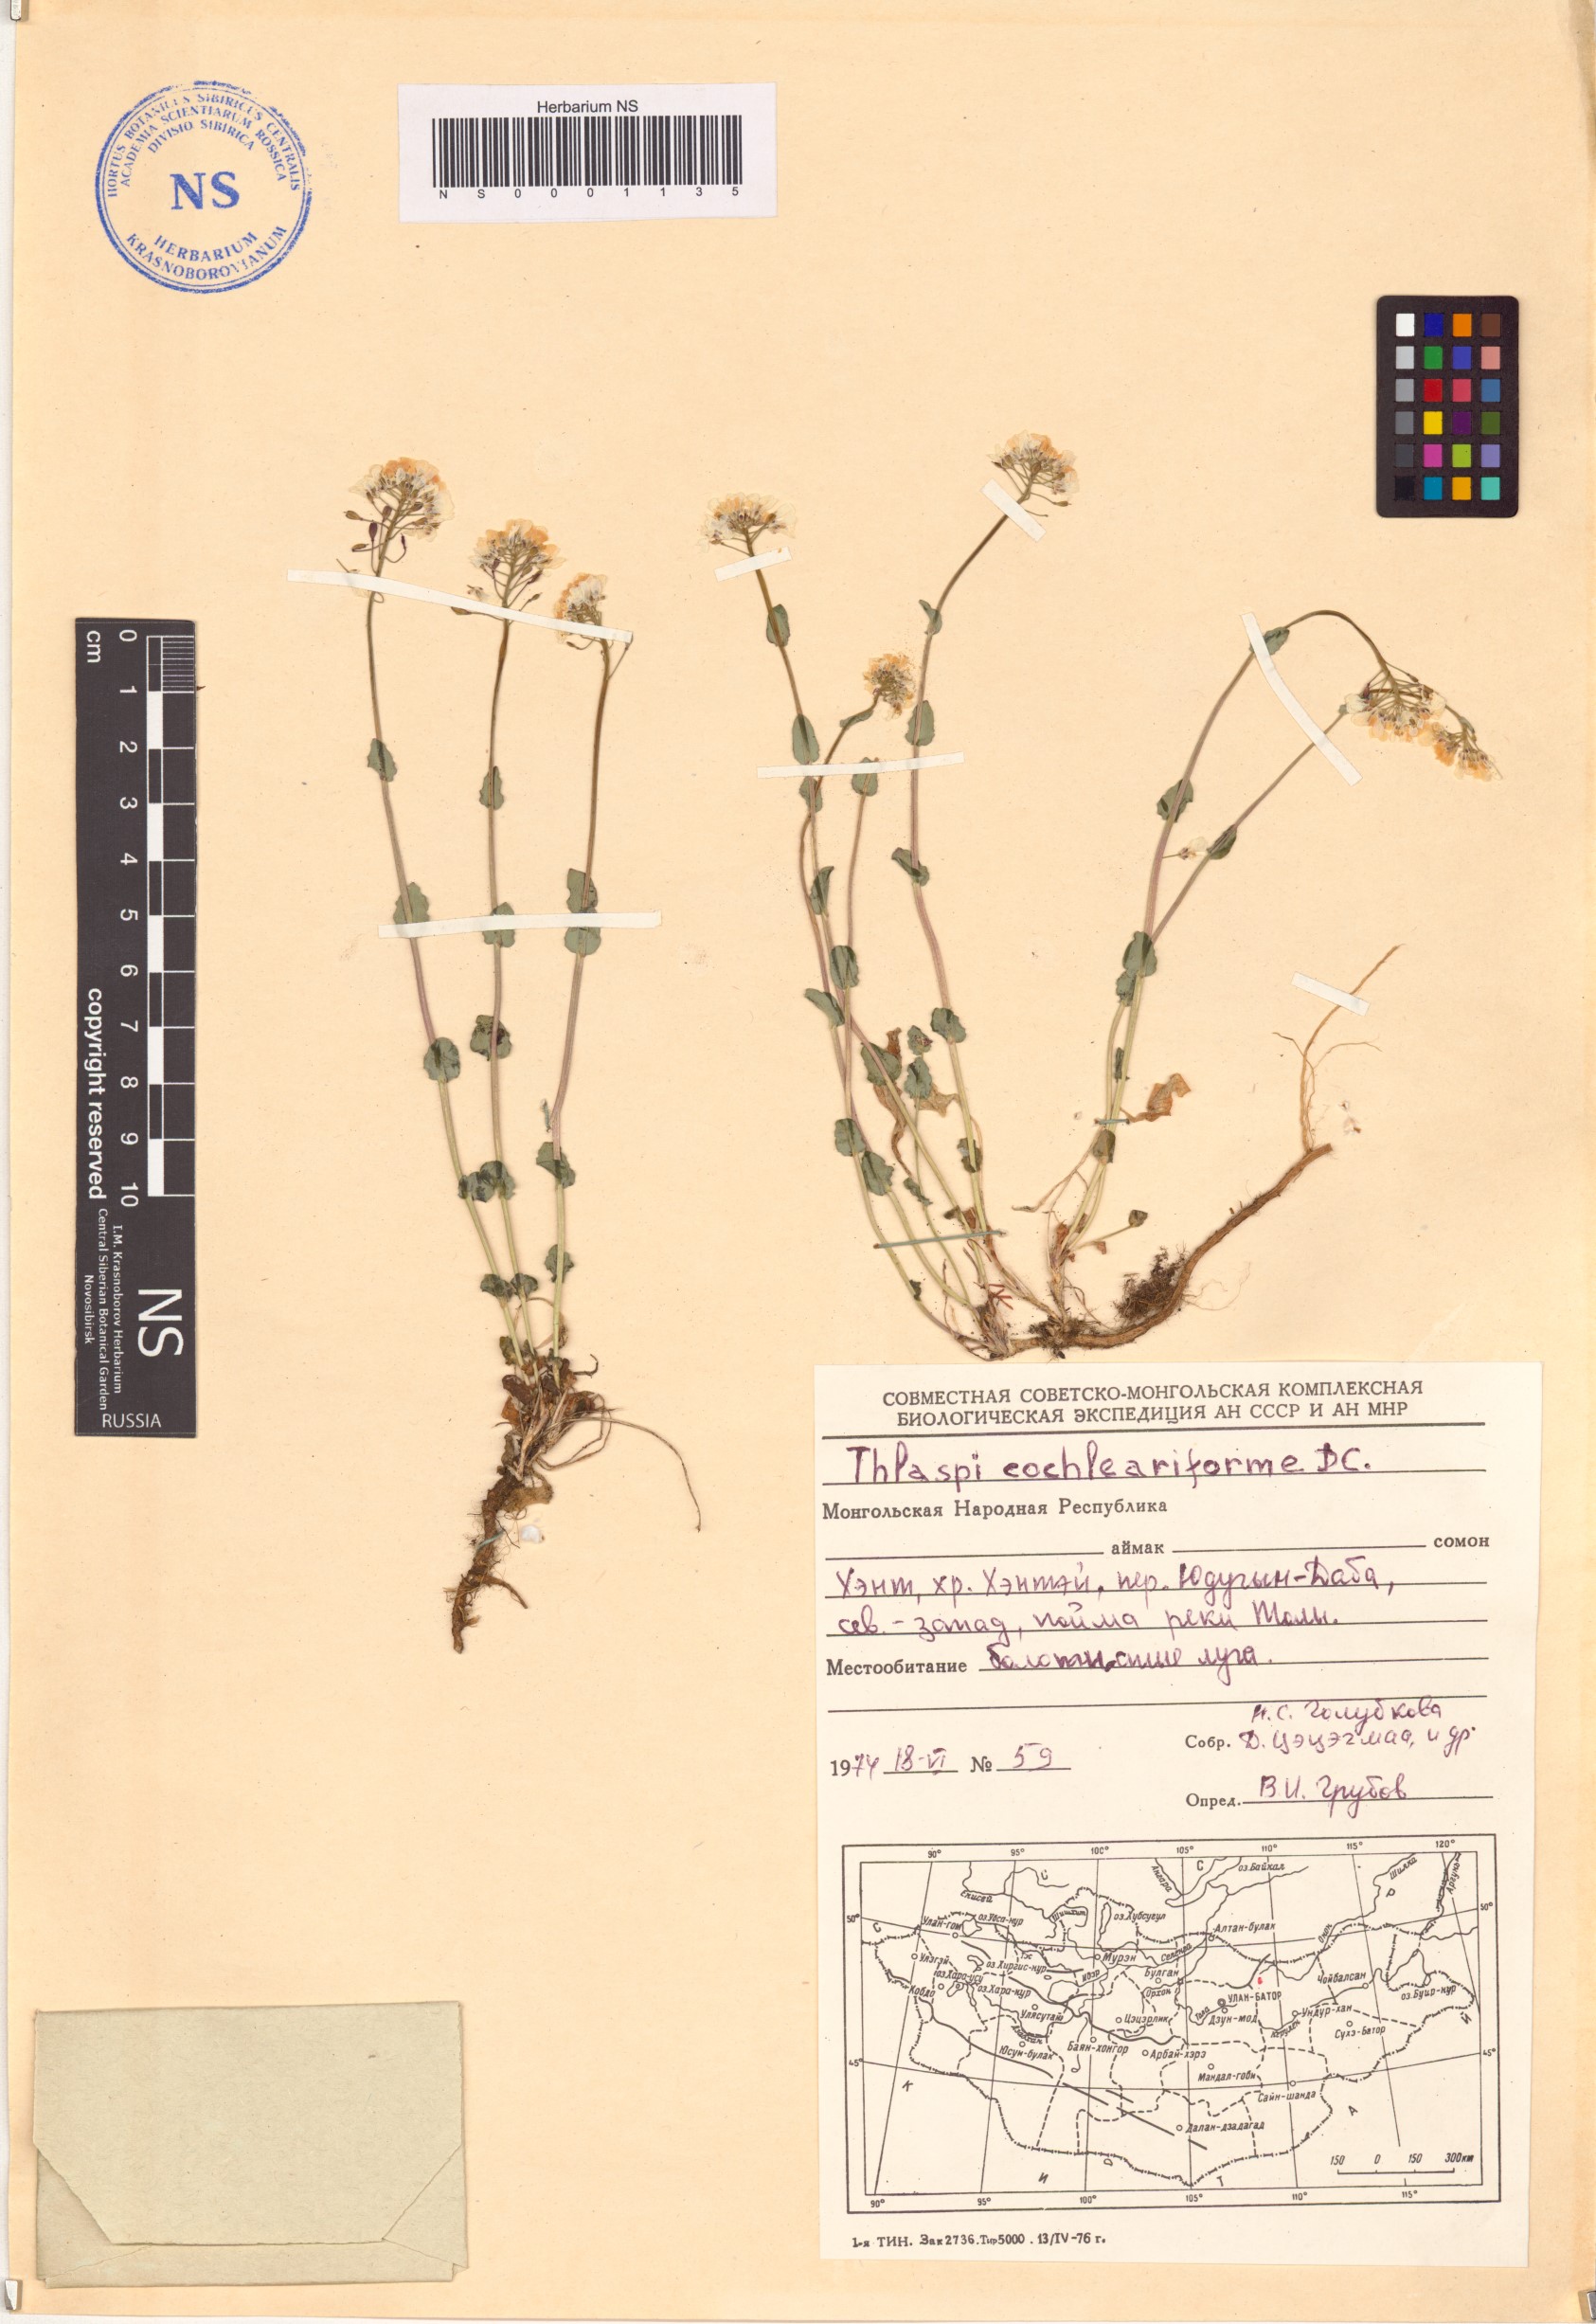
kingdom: Plantae
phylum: Tracheophyta
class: Magnoliopsida
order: Brassicales
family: Brassicaceae
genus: Noccaea
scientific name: Noccaea thlaspidioides
